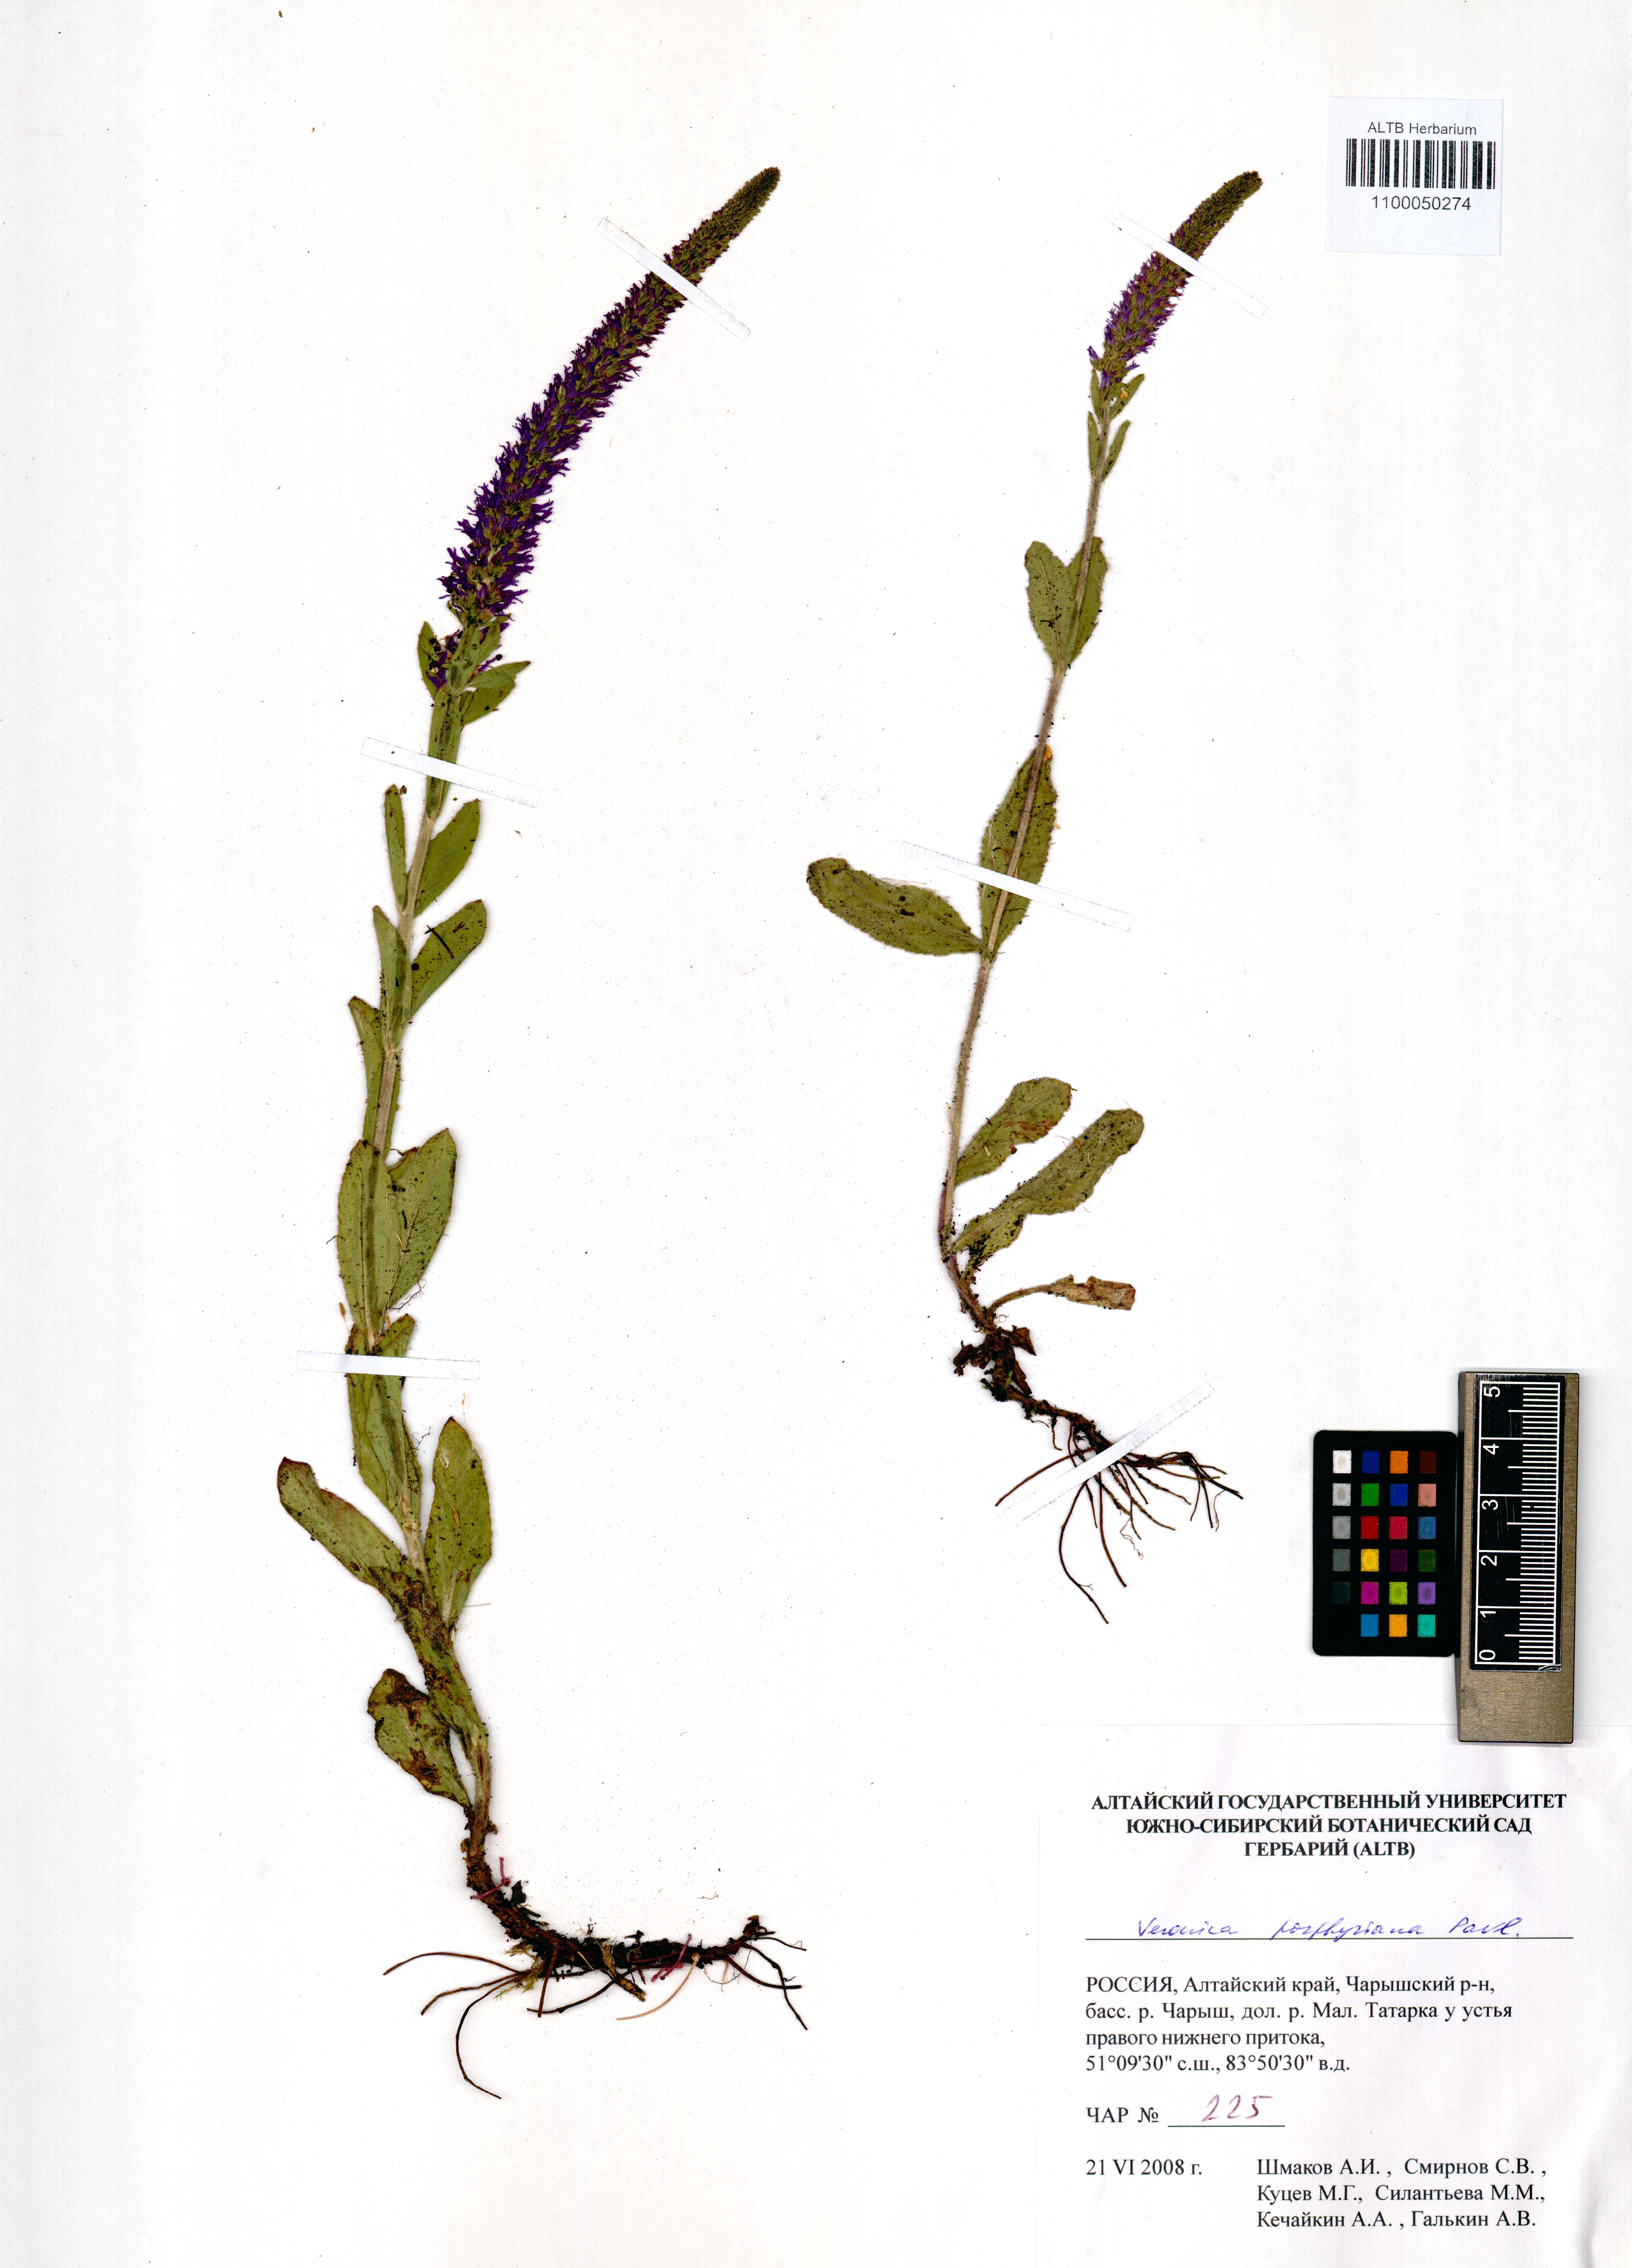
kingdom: Plantae
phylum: Tracheophyta
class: Magnoliopsida
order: Lamiales
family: Plantaginaceae
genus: Veronica
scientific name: Veronica porphyriana
